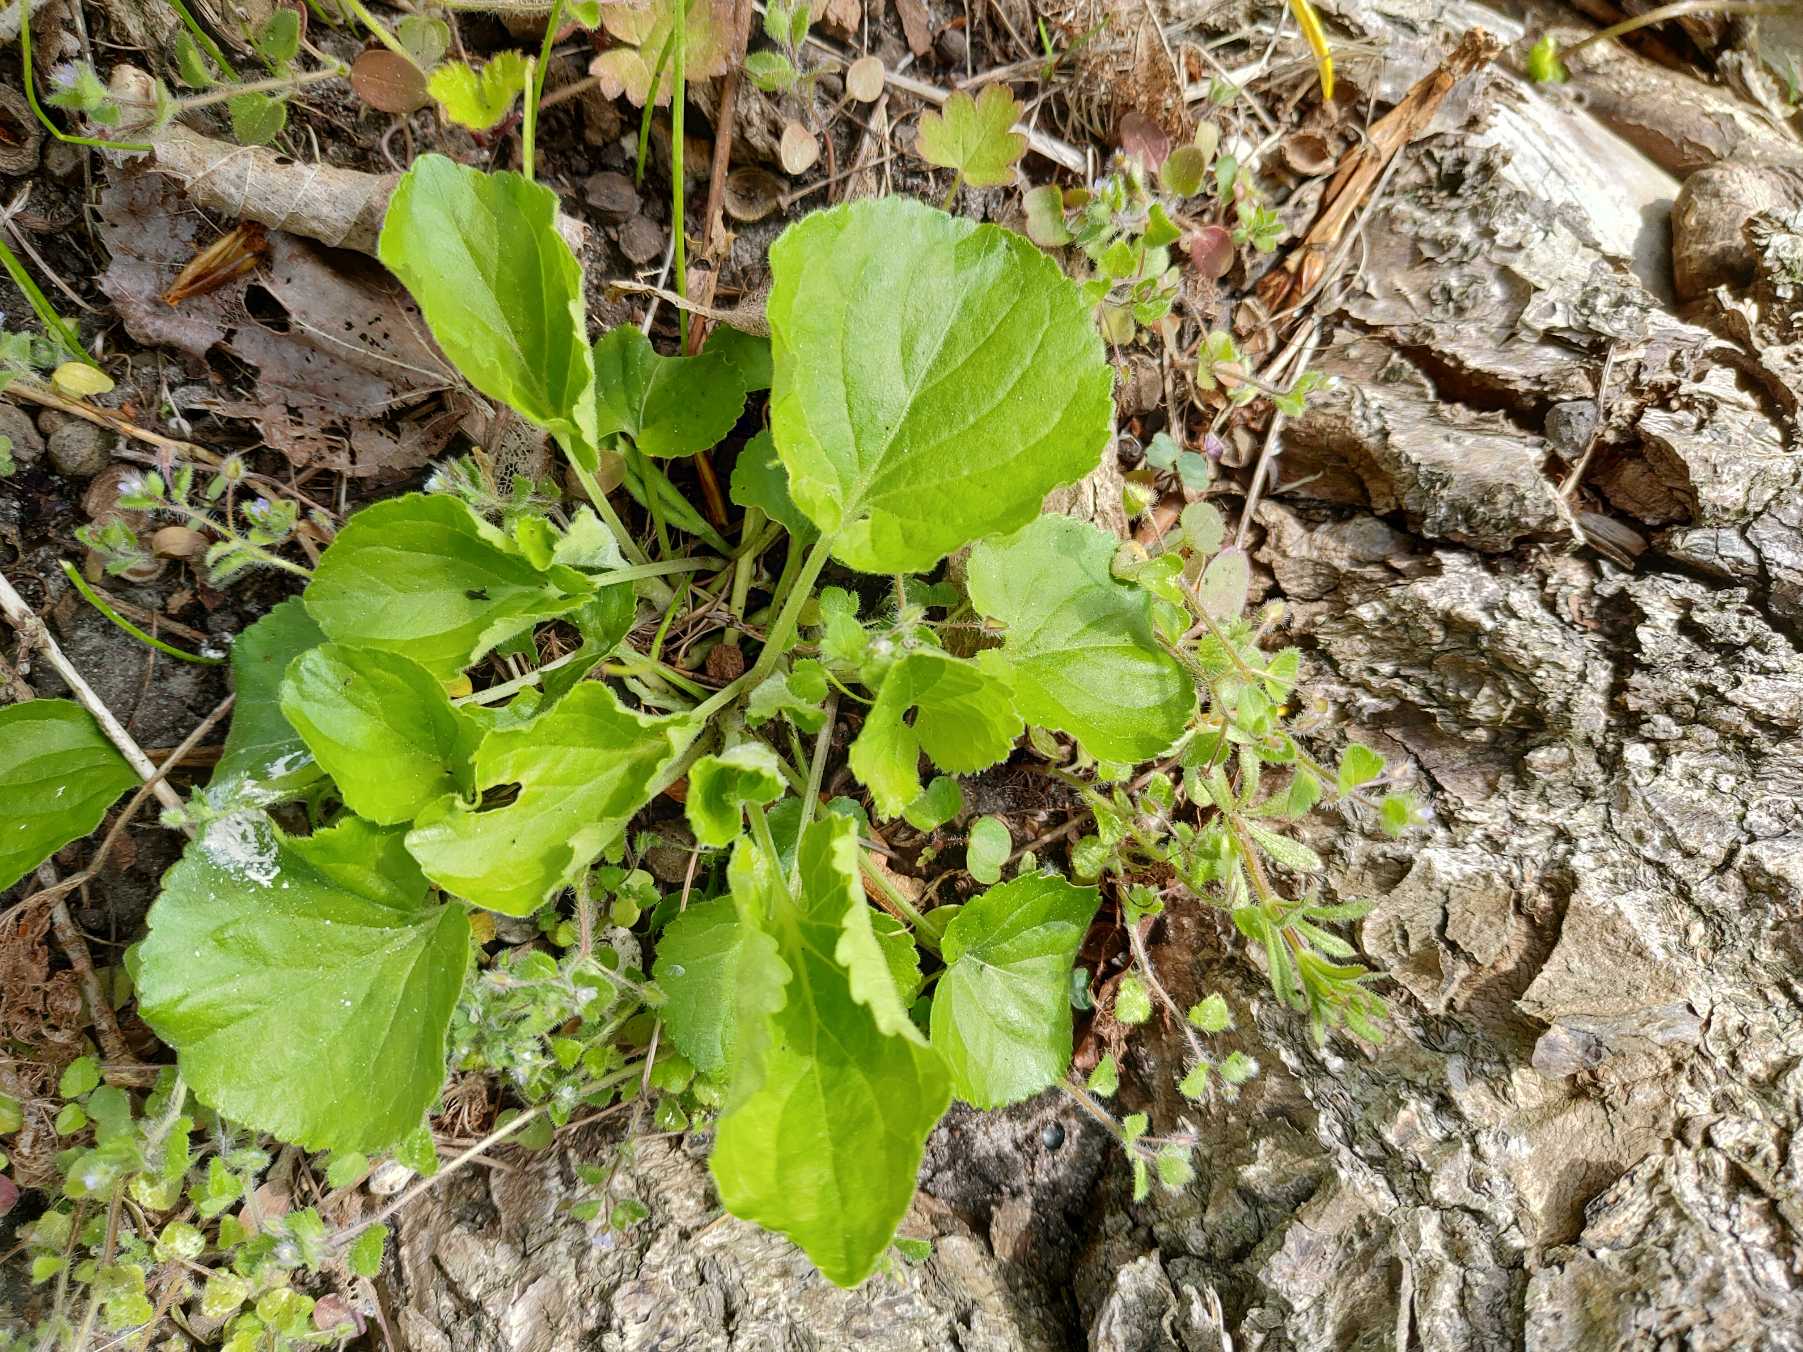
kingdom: Plantae
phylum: Tracheophyta
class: Magnoliopsida
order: Malpighiales
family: Violaceae
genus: Viola
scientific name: Viola odorata
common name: Marts-viol
